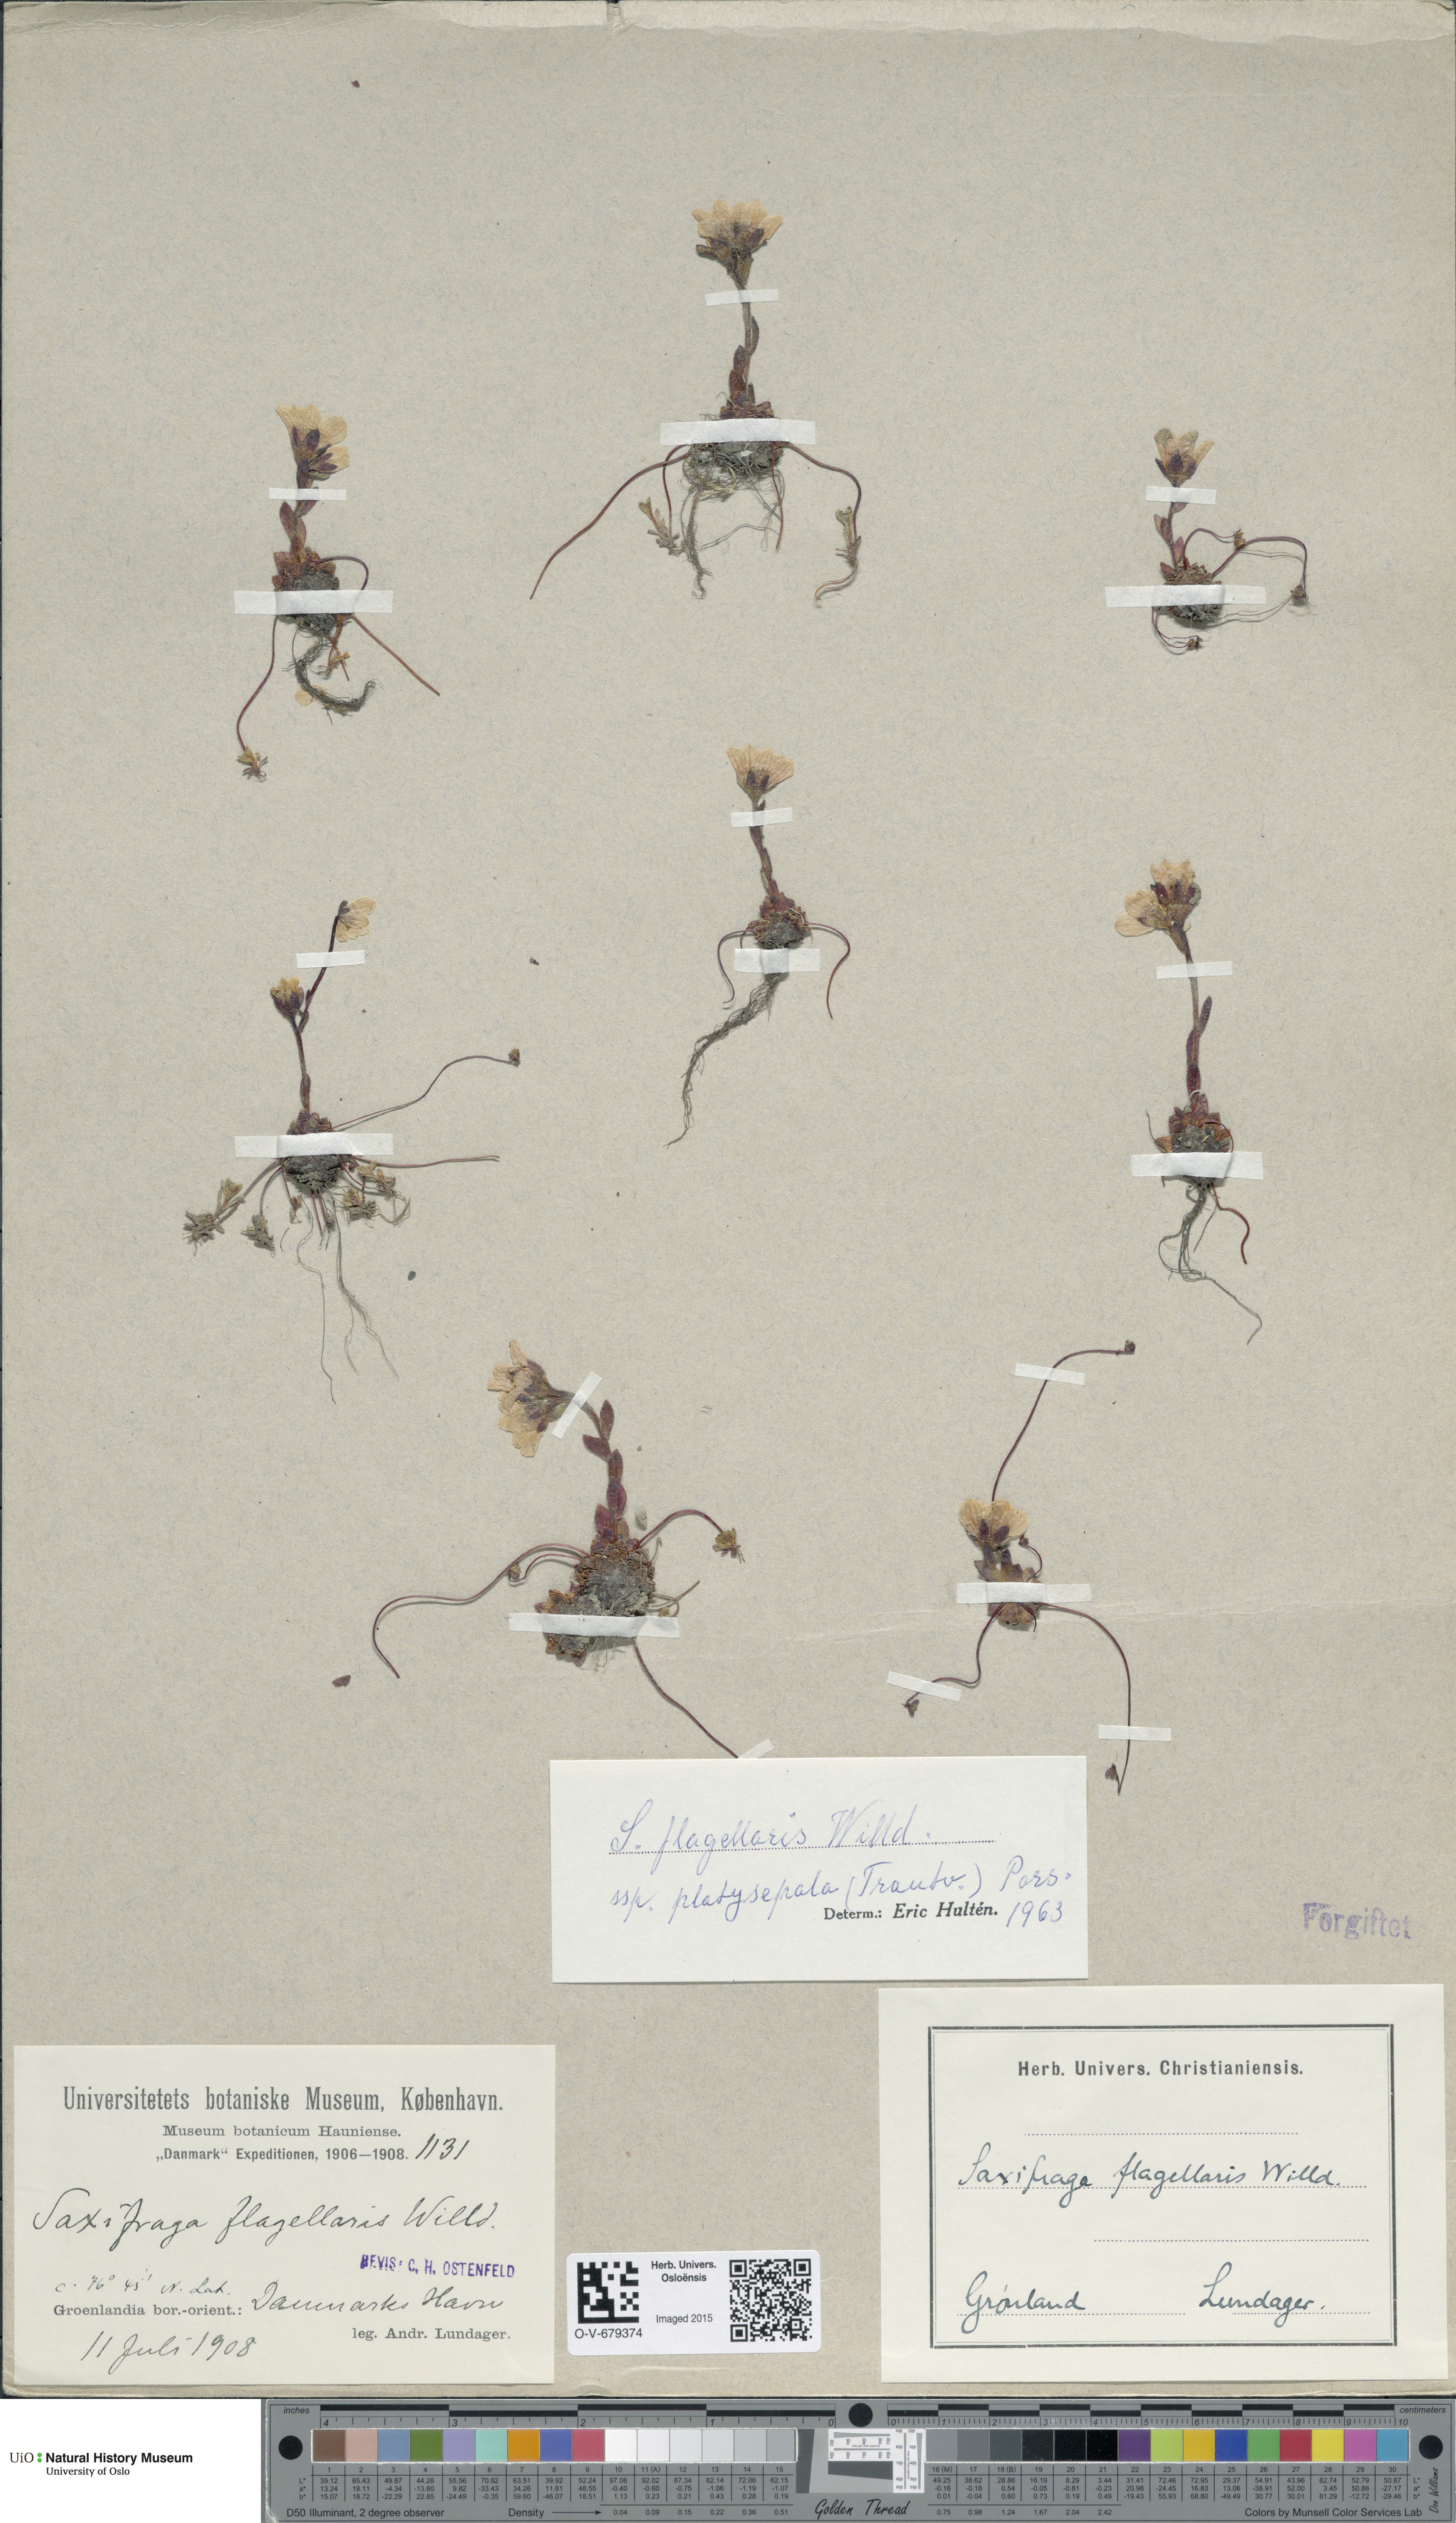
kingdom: Plantae
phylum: Tracheophyta
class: Magnoliopsida
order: Saxifragales
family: Saxifragaceae
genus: Saxifraga
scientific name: Saxifraga platysepala
